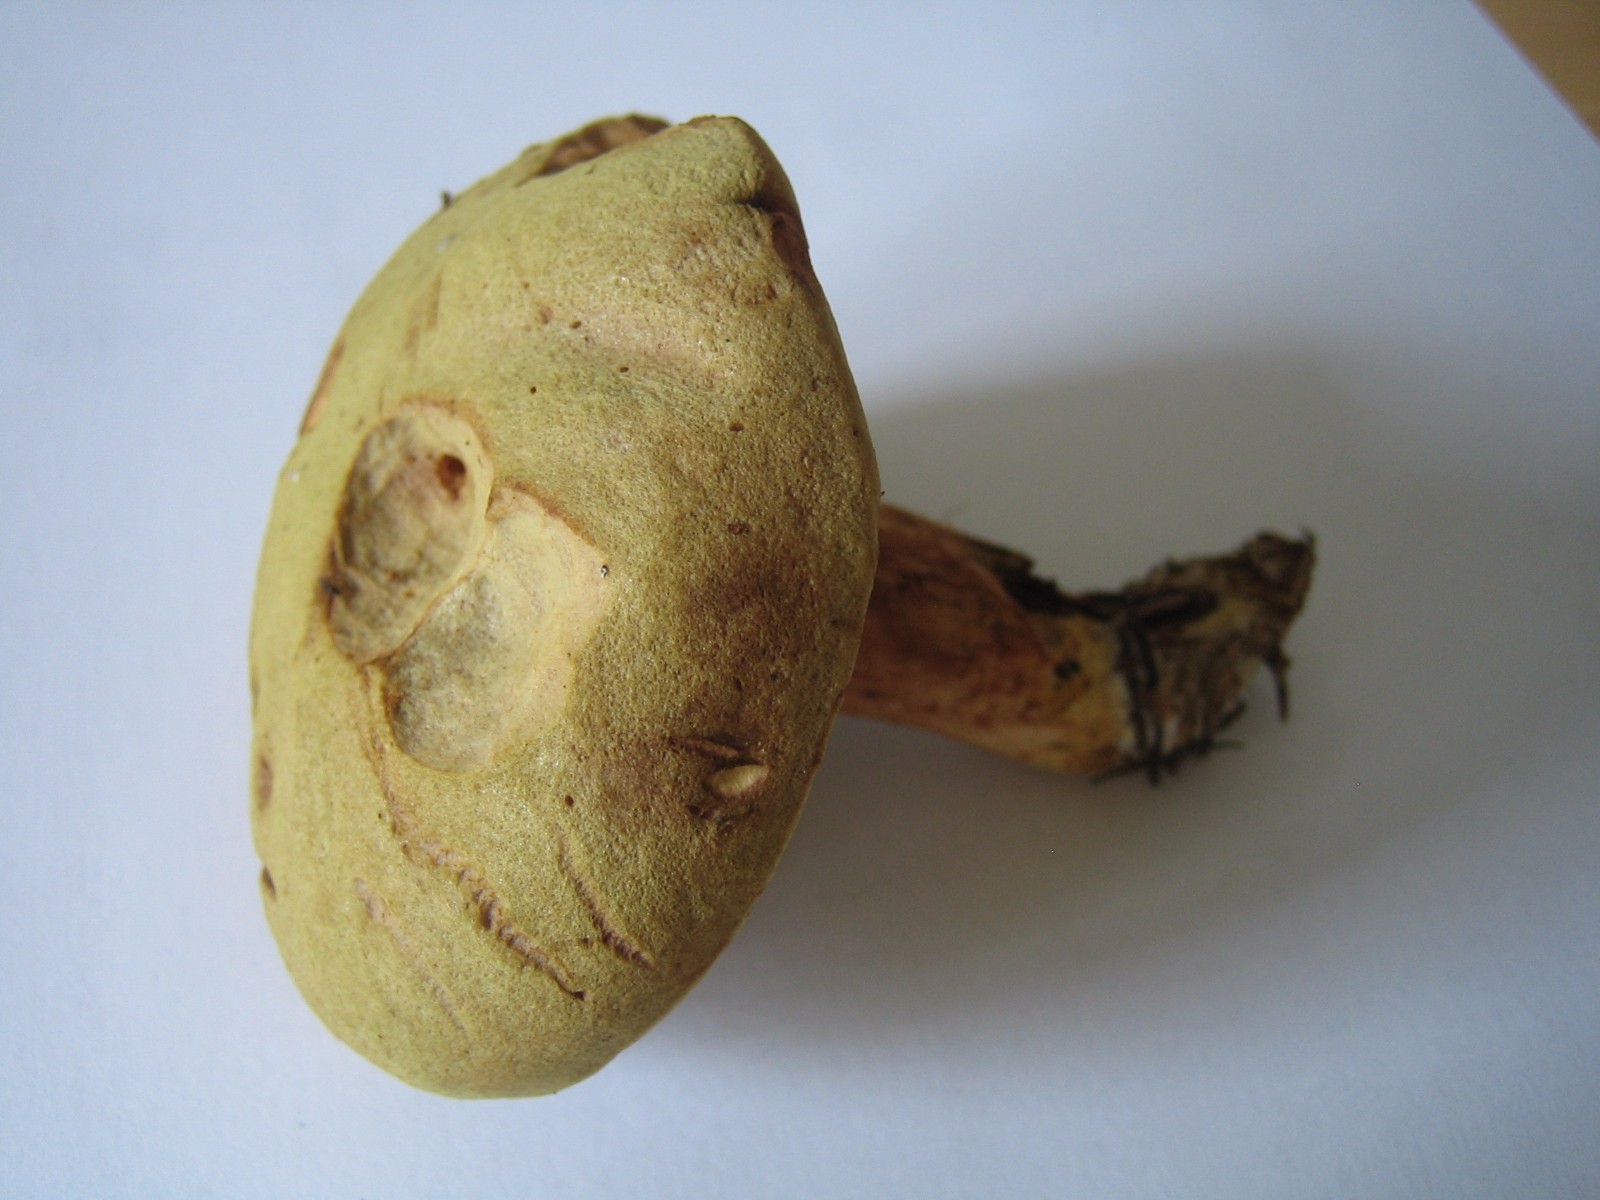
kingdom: Fungi
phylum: Basidiomycota
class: Agaricomycetes
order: Boletales
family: Boletaceae
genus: Xerocomus
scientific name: Xerocomus ferrugineus
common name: vaskeskinds-rørhat
